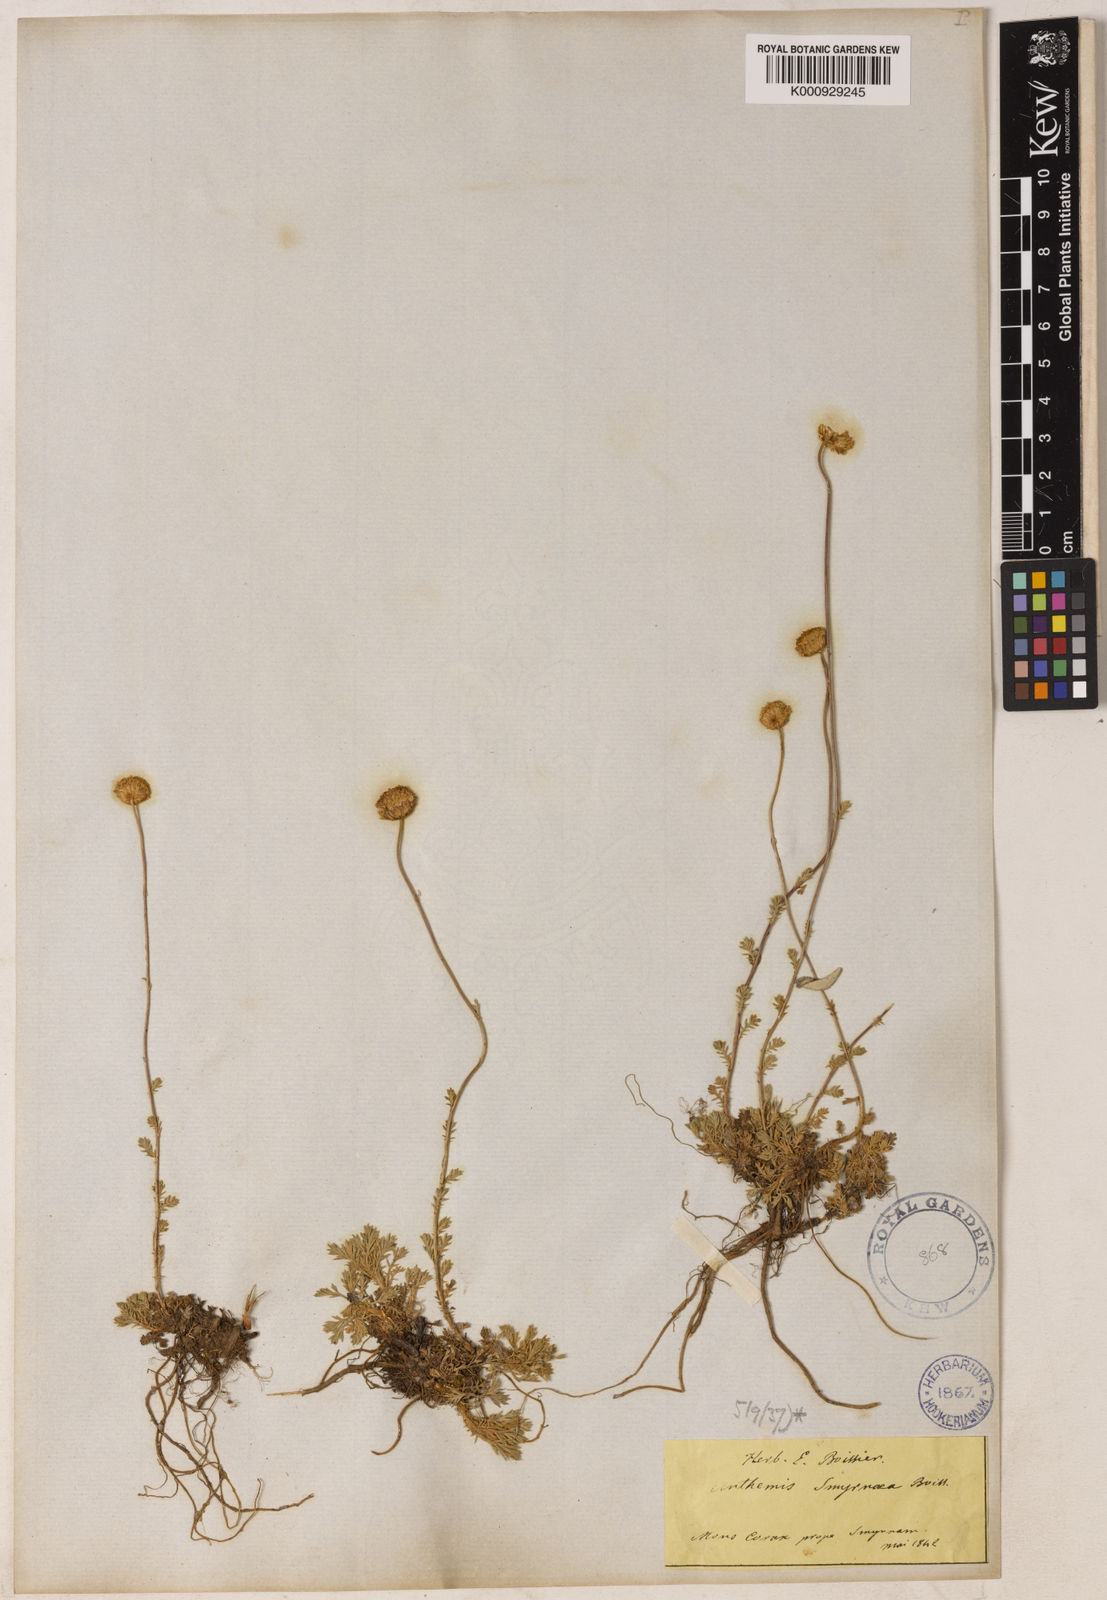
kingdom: Plantae
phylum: Tracheophyta
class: Magnoliopsida
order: Asterales
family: Asteraceae
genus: Anthemis
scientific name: Anthemis cretica
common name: Mountain dog-daisy
